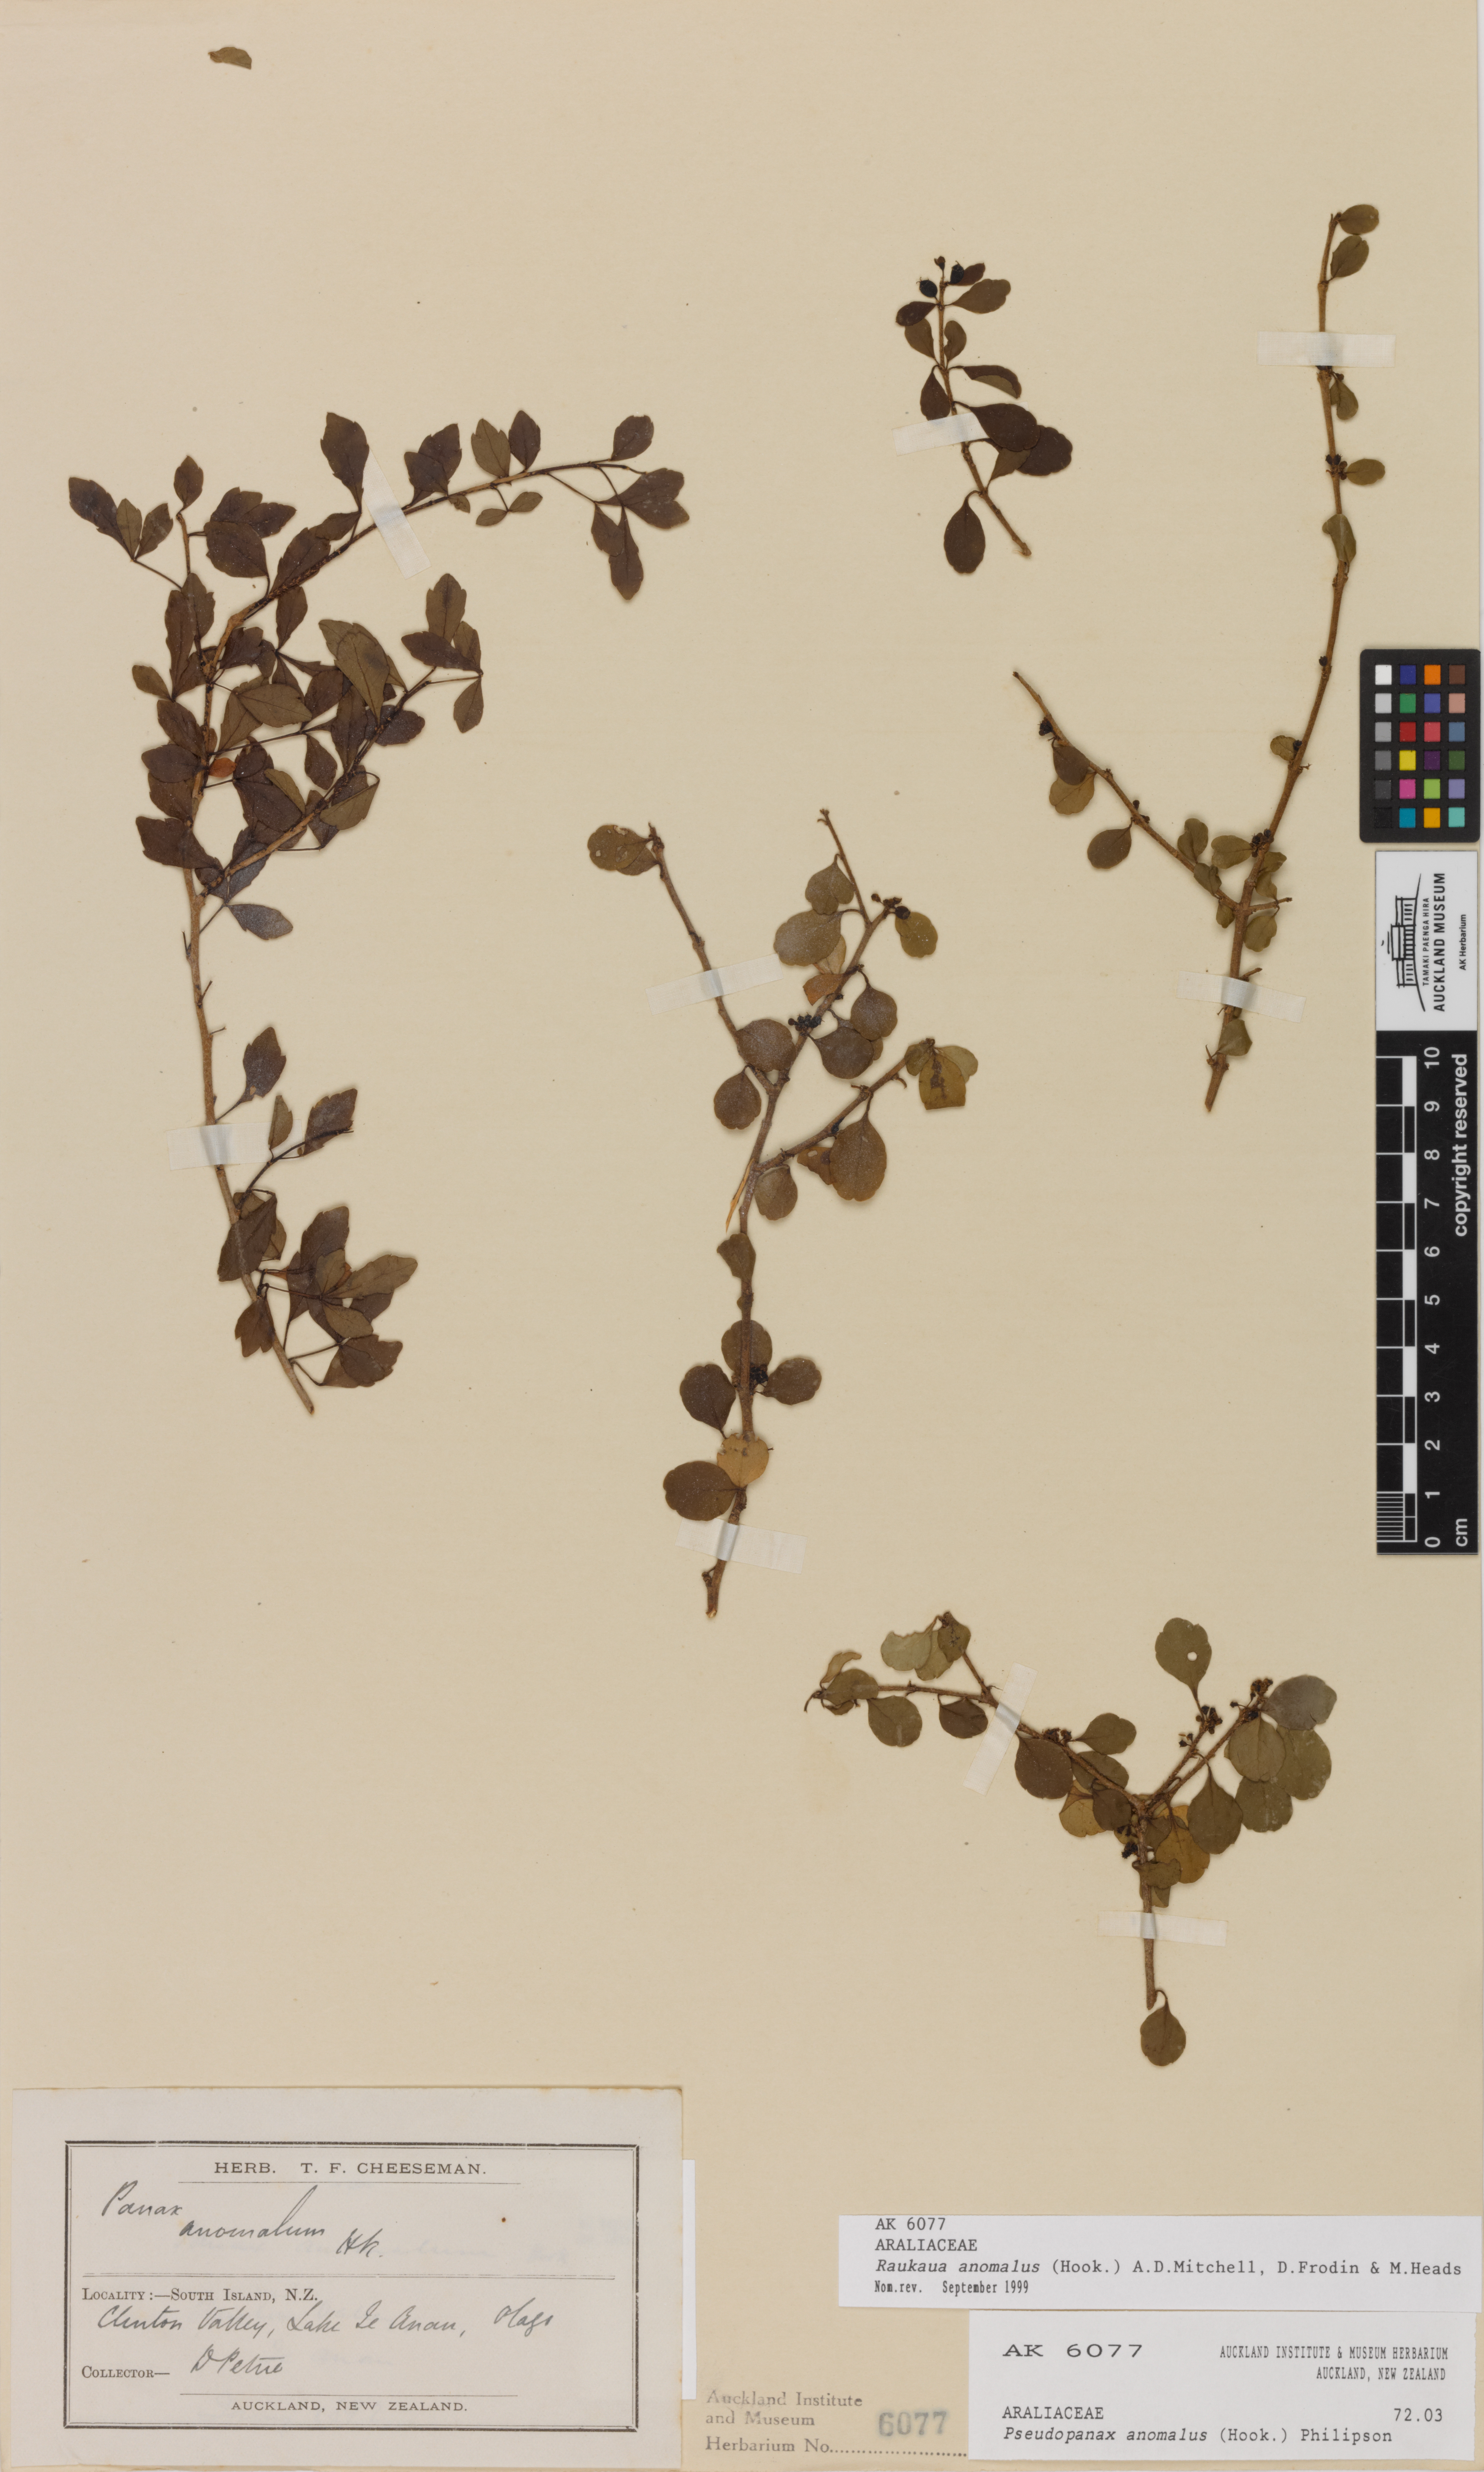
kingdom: Plantae
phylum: Tracheophyta
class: Magnoliopsida
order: Apiales
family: Araliaceae
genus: Raukaua
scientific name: Raukaua anomalus
